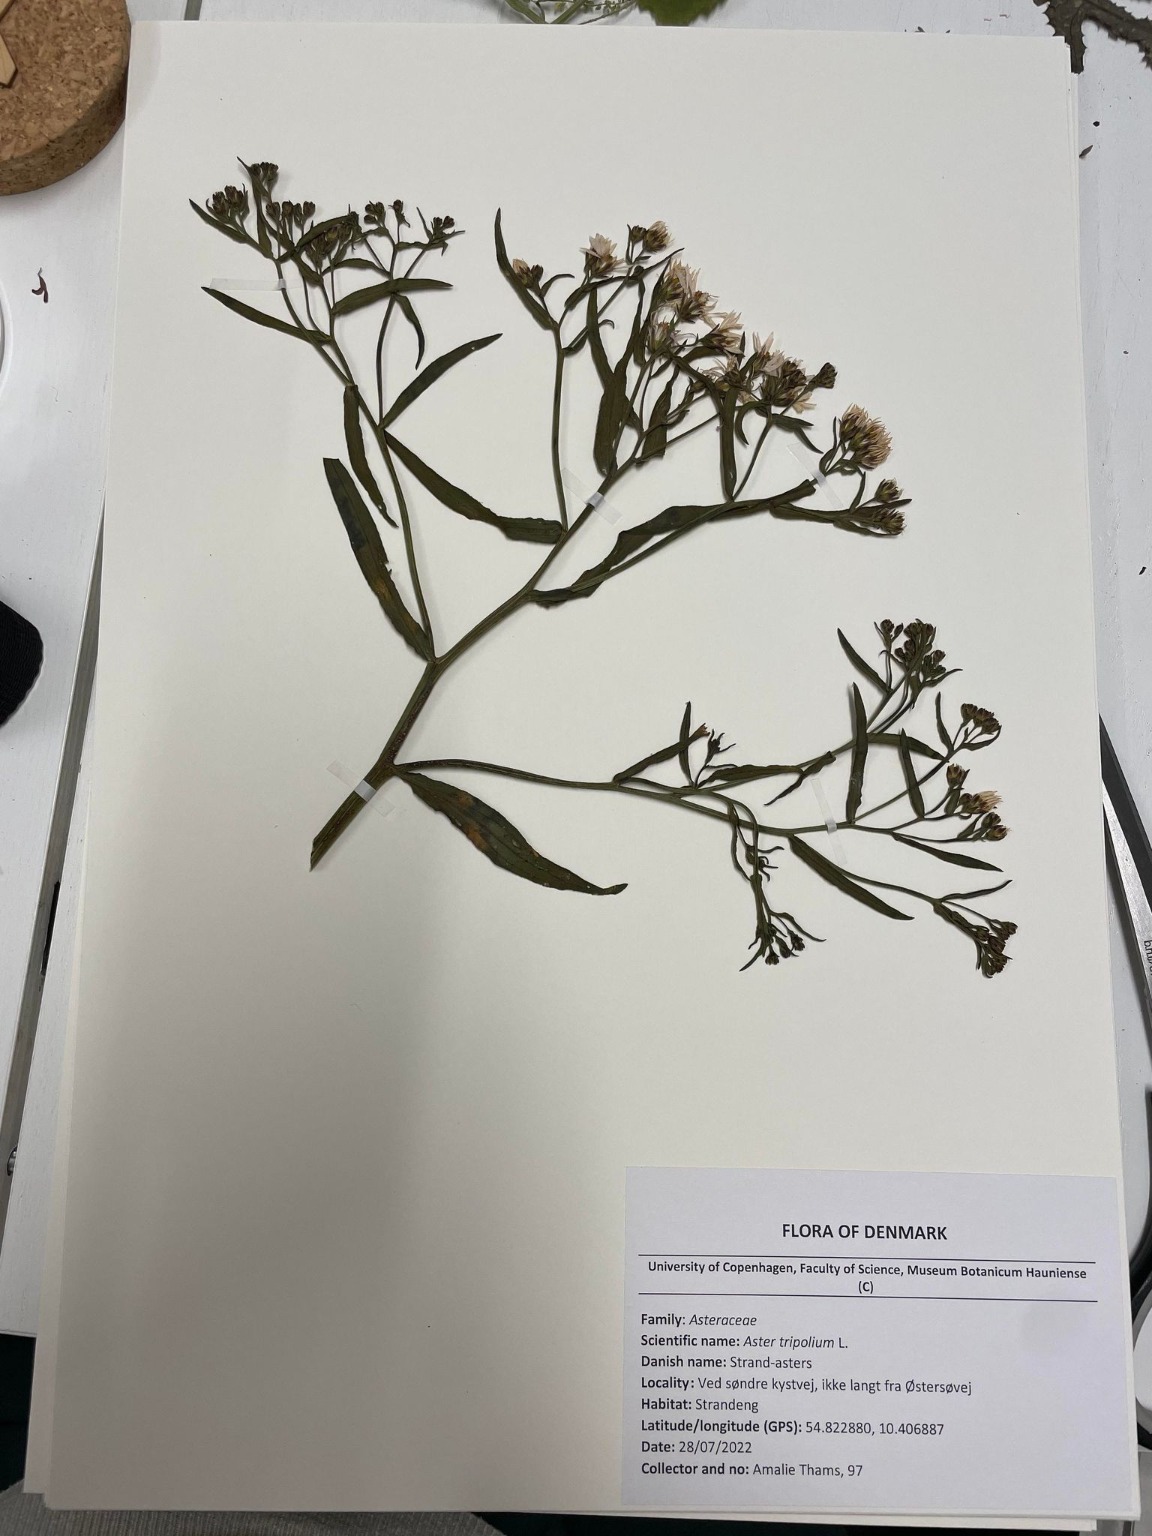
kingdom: Plantae
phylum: Tracheophyta
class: Magnoliopsida
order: Asterales
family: Asteraceae
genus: Tripolium
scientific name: Tripolium pannonicum
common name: Strandasters
